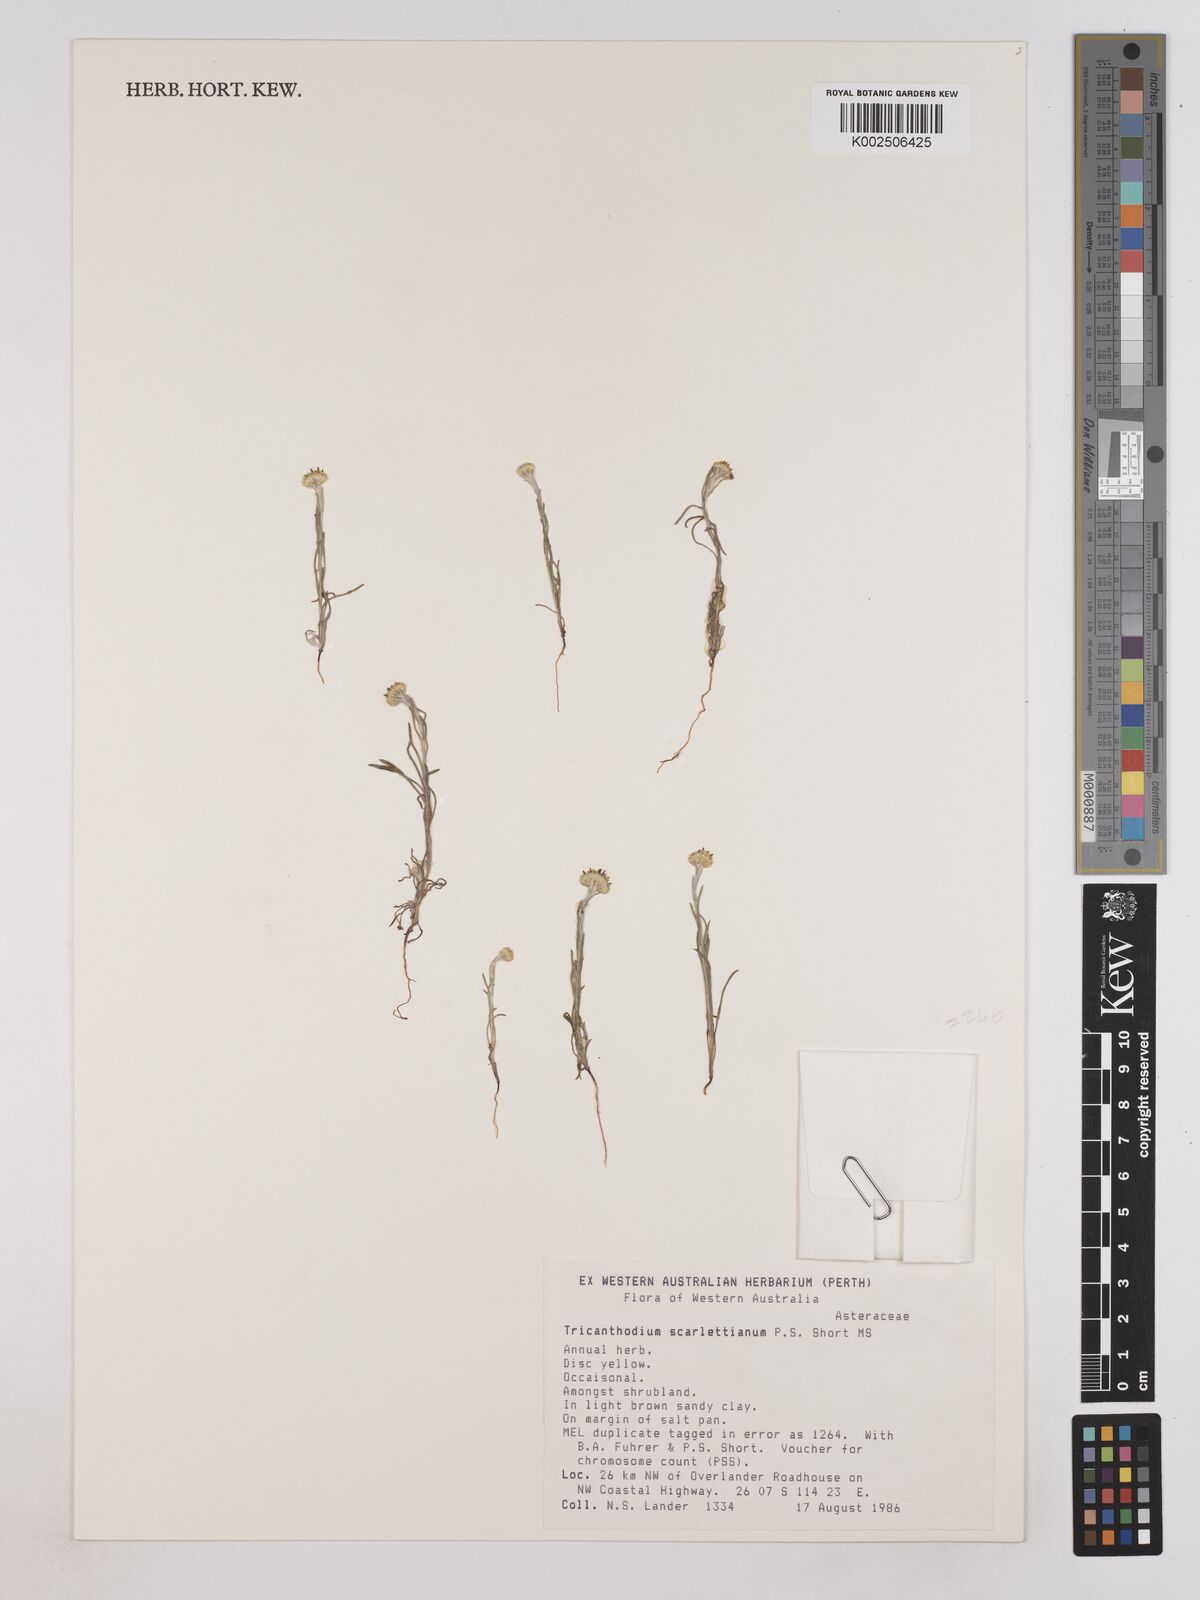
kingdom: Plantae
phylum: Tracheophyta
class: Magnoliopsida
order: Asterales
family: Asteraceae
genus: Trichanthodium
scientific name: Trichanthodium scarlettianum
